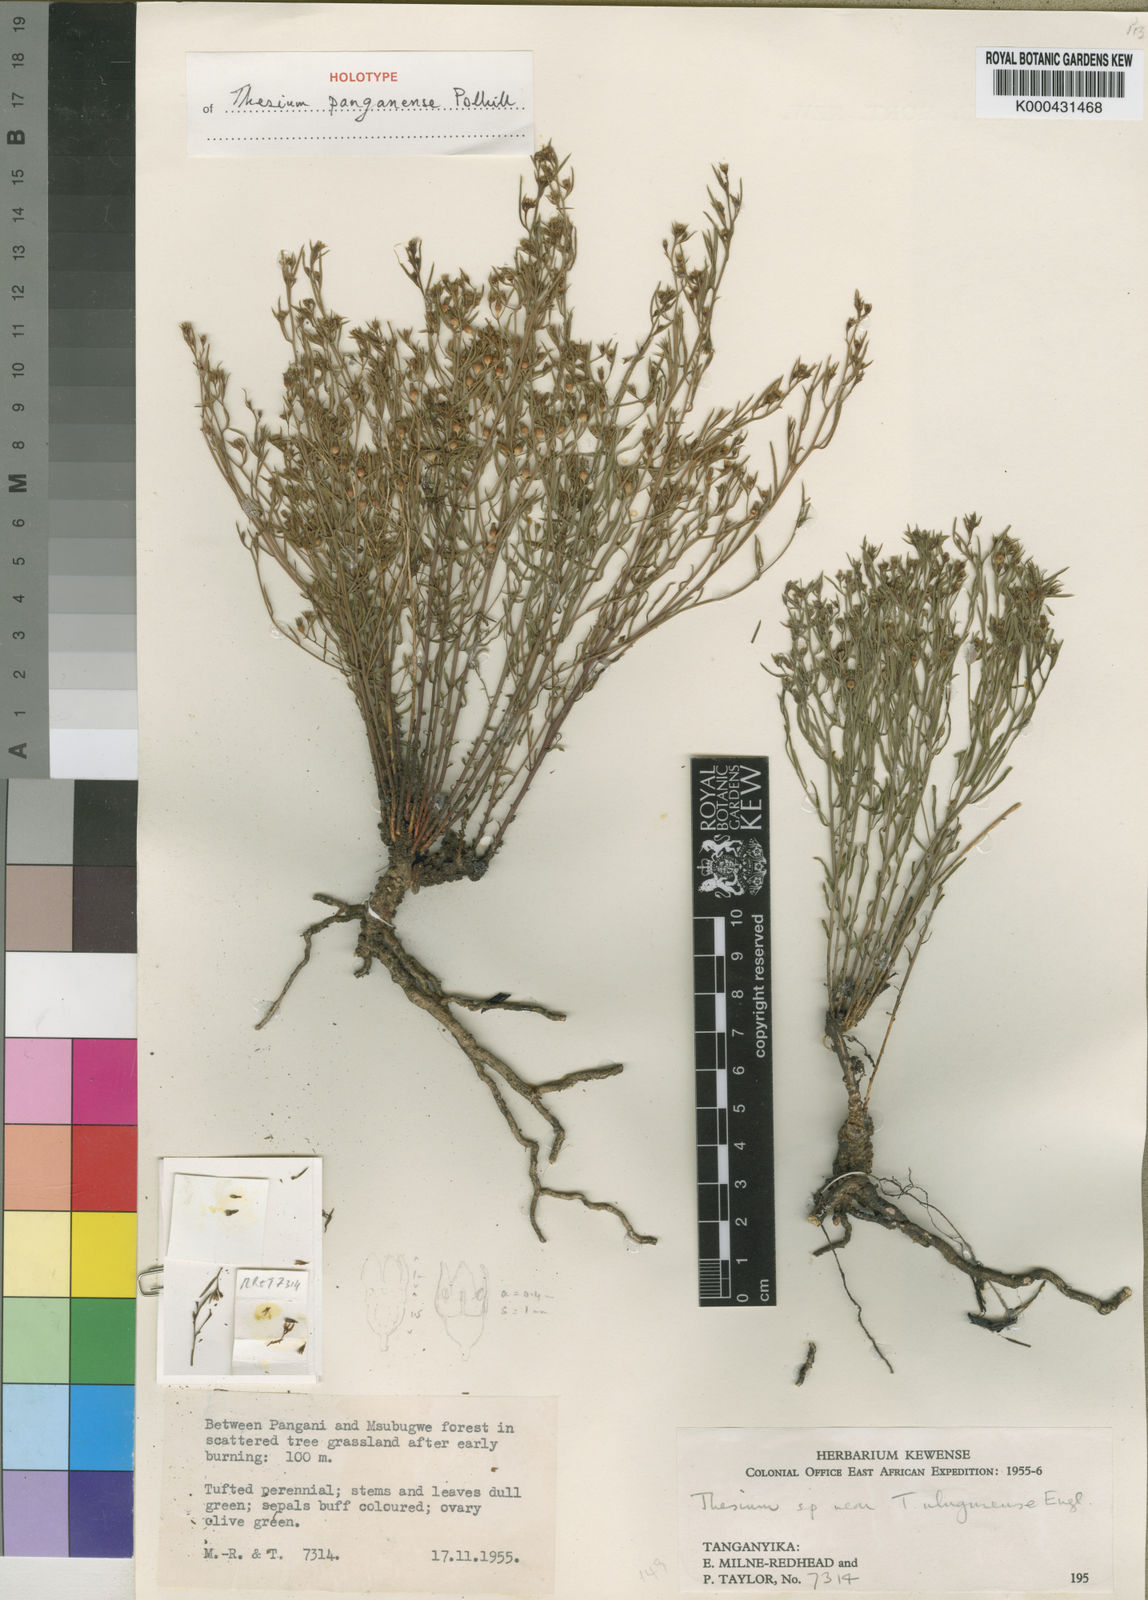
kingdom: Plantae
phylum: Tracheophyta
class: Magnoliopsida
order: Santalales
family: Thesiaceae
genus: Thesium
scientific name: Thesium panganense
